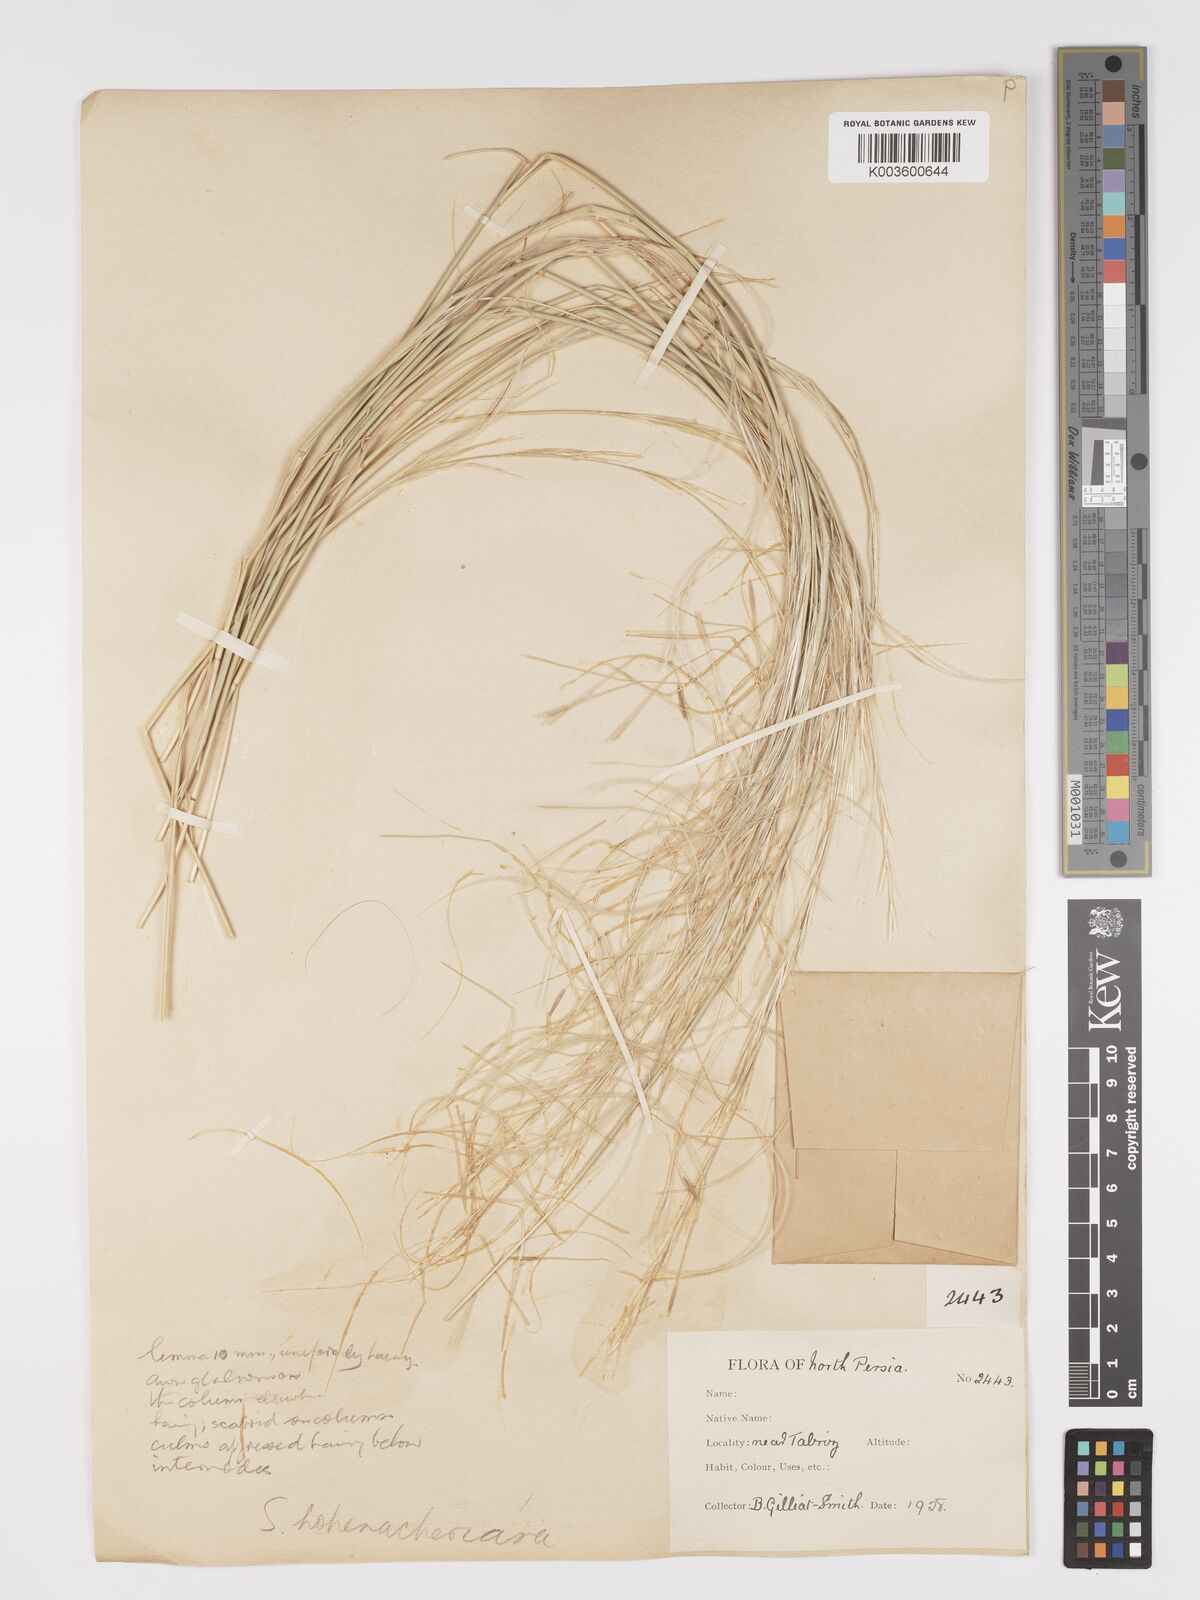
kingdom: Plantae
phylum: Tracheophyta
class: Liliopsida
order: Poales
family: Poaceae
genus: Stipa
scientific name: Stipa hohenackeriana
